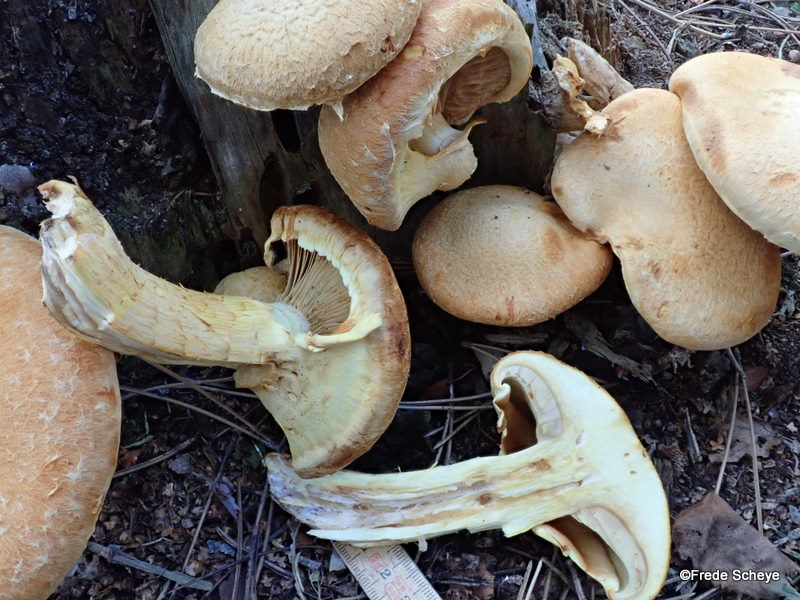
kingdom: Fungi
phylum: Basidiomycota
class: Agaricomycetes
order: Agaricales
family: Hymenogastraceae
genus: Gymnopilus
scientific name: Gymnopilus spectabilis
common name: fibret flammehat
